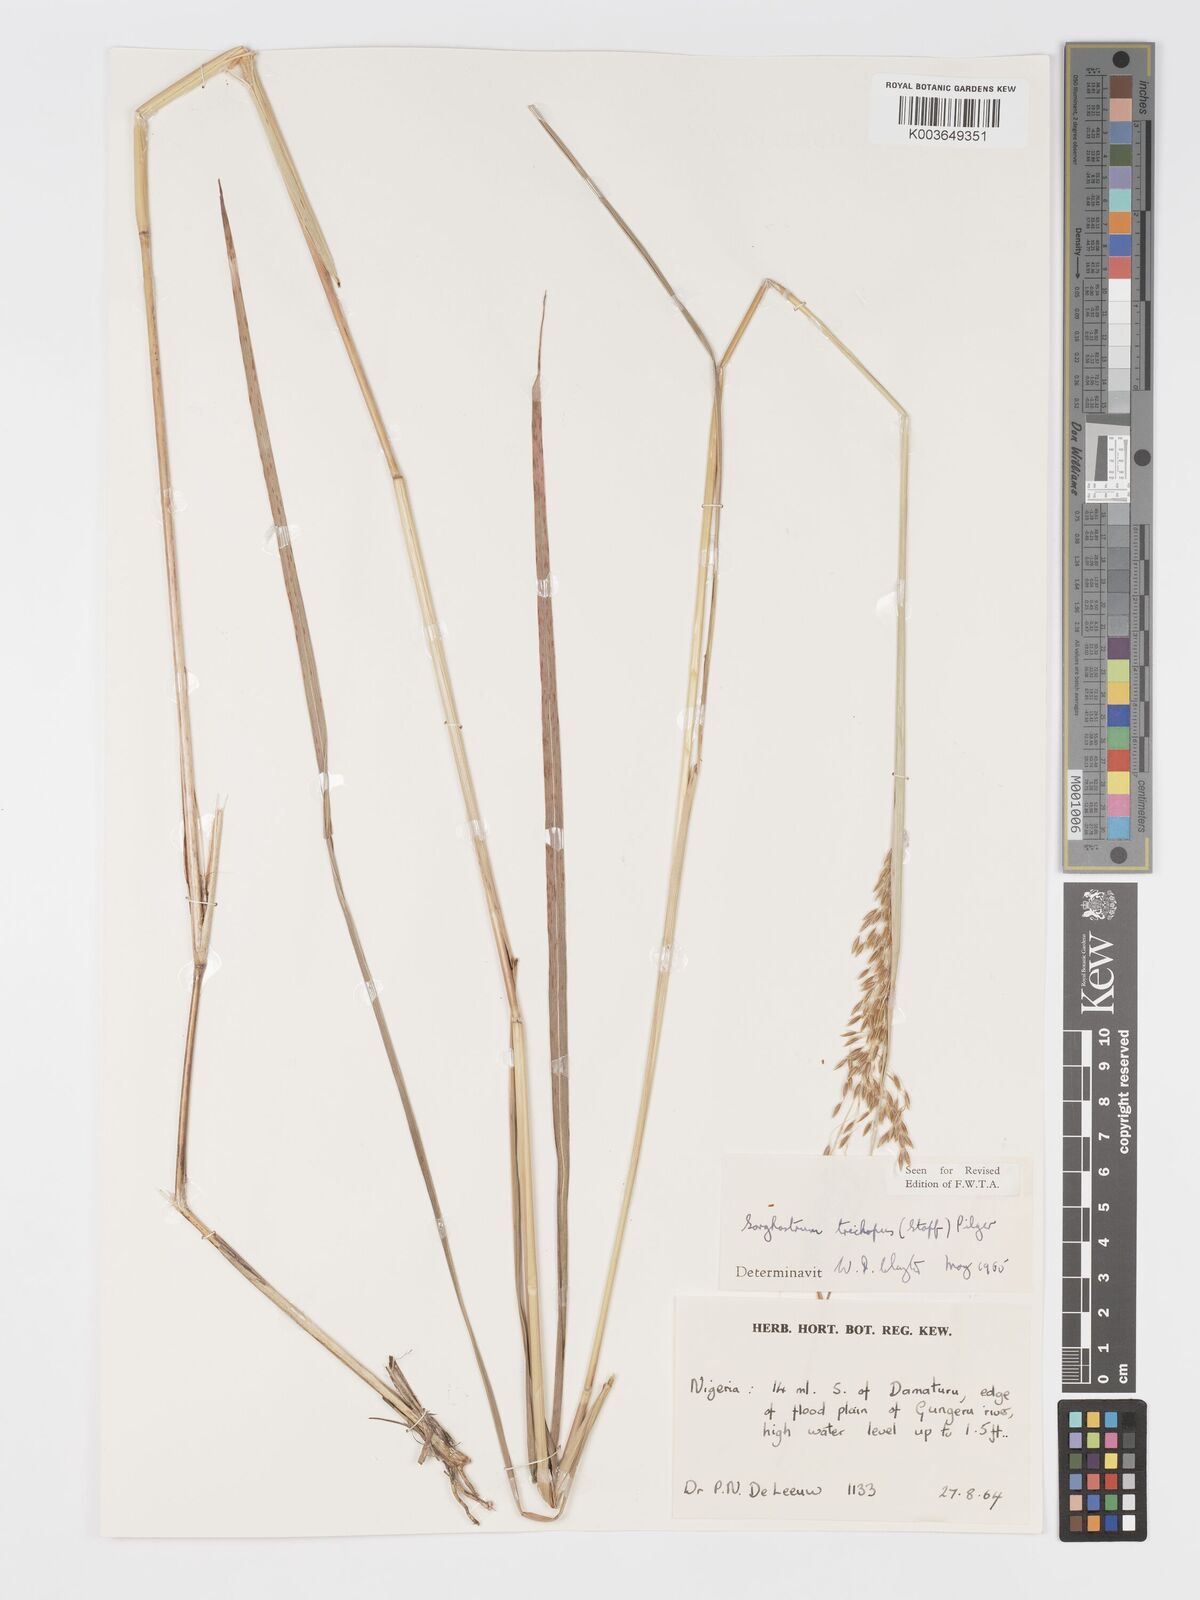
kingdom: Plantae
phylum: Tracheophyta
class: Liliopsida
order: Poales
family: Poaceae
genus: Sorghastrum
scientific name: Sorghastrum stipoides
